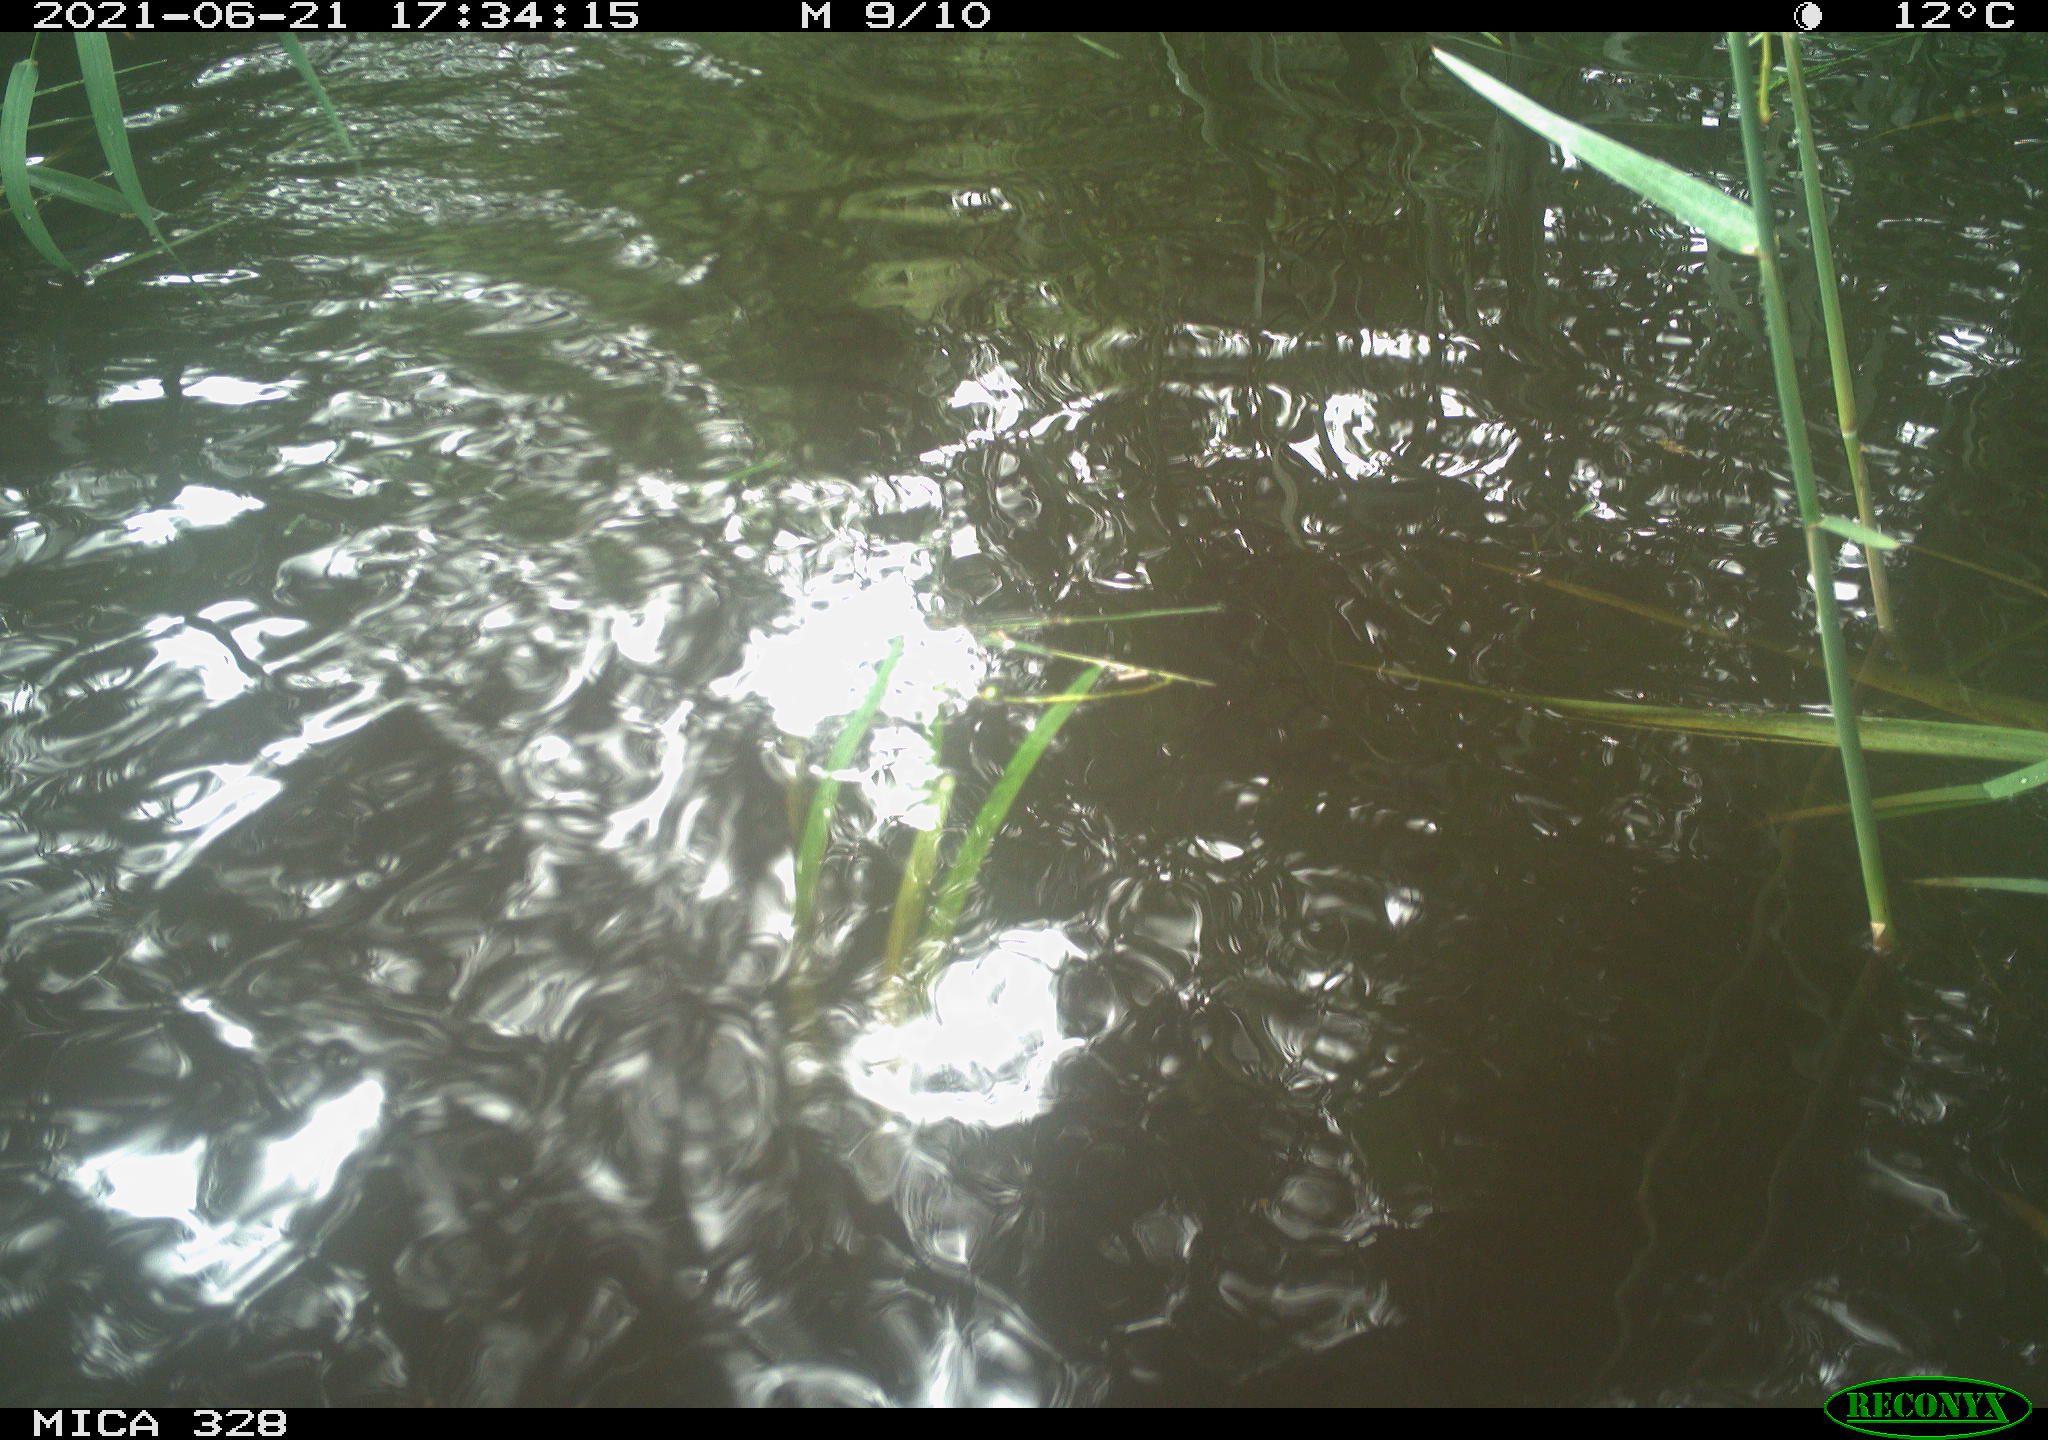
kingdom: Animalia
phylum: Chordata
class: Aves
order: Anseriformes
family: Anatidae
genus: Aix
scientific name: Aix galericulata
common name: Mandarin duck
